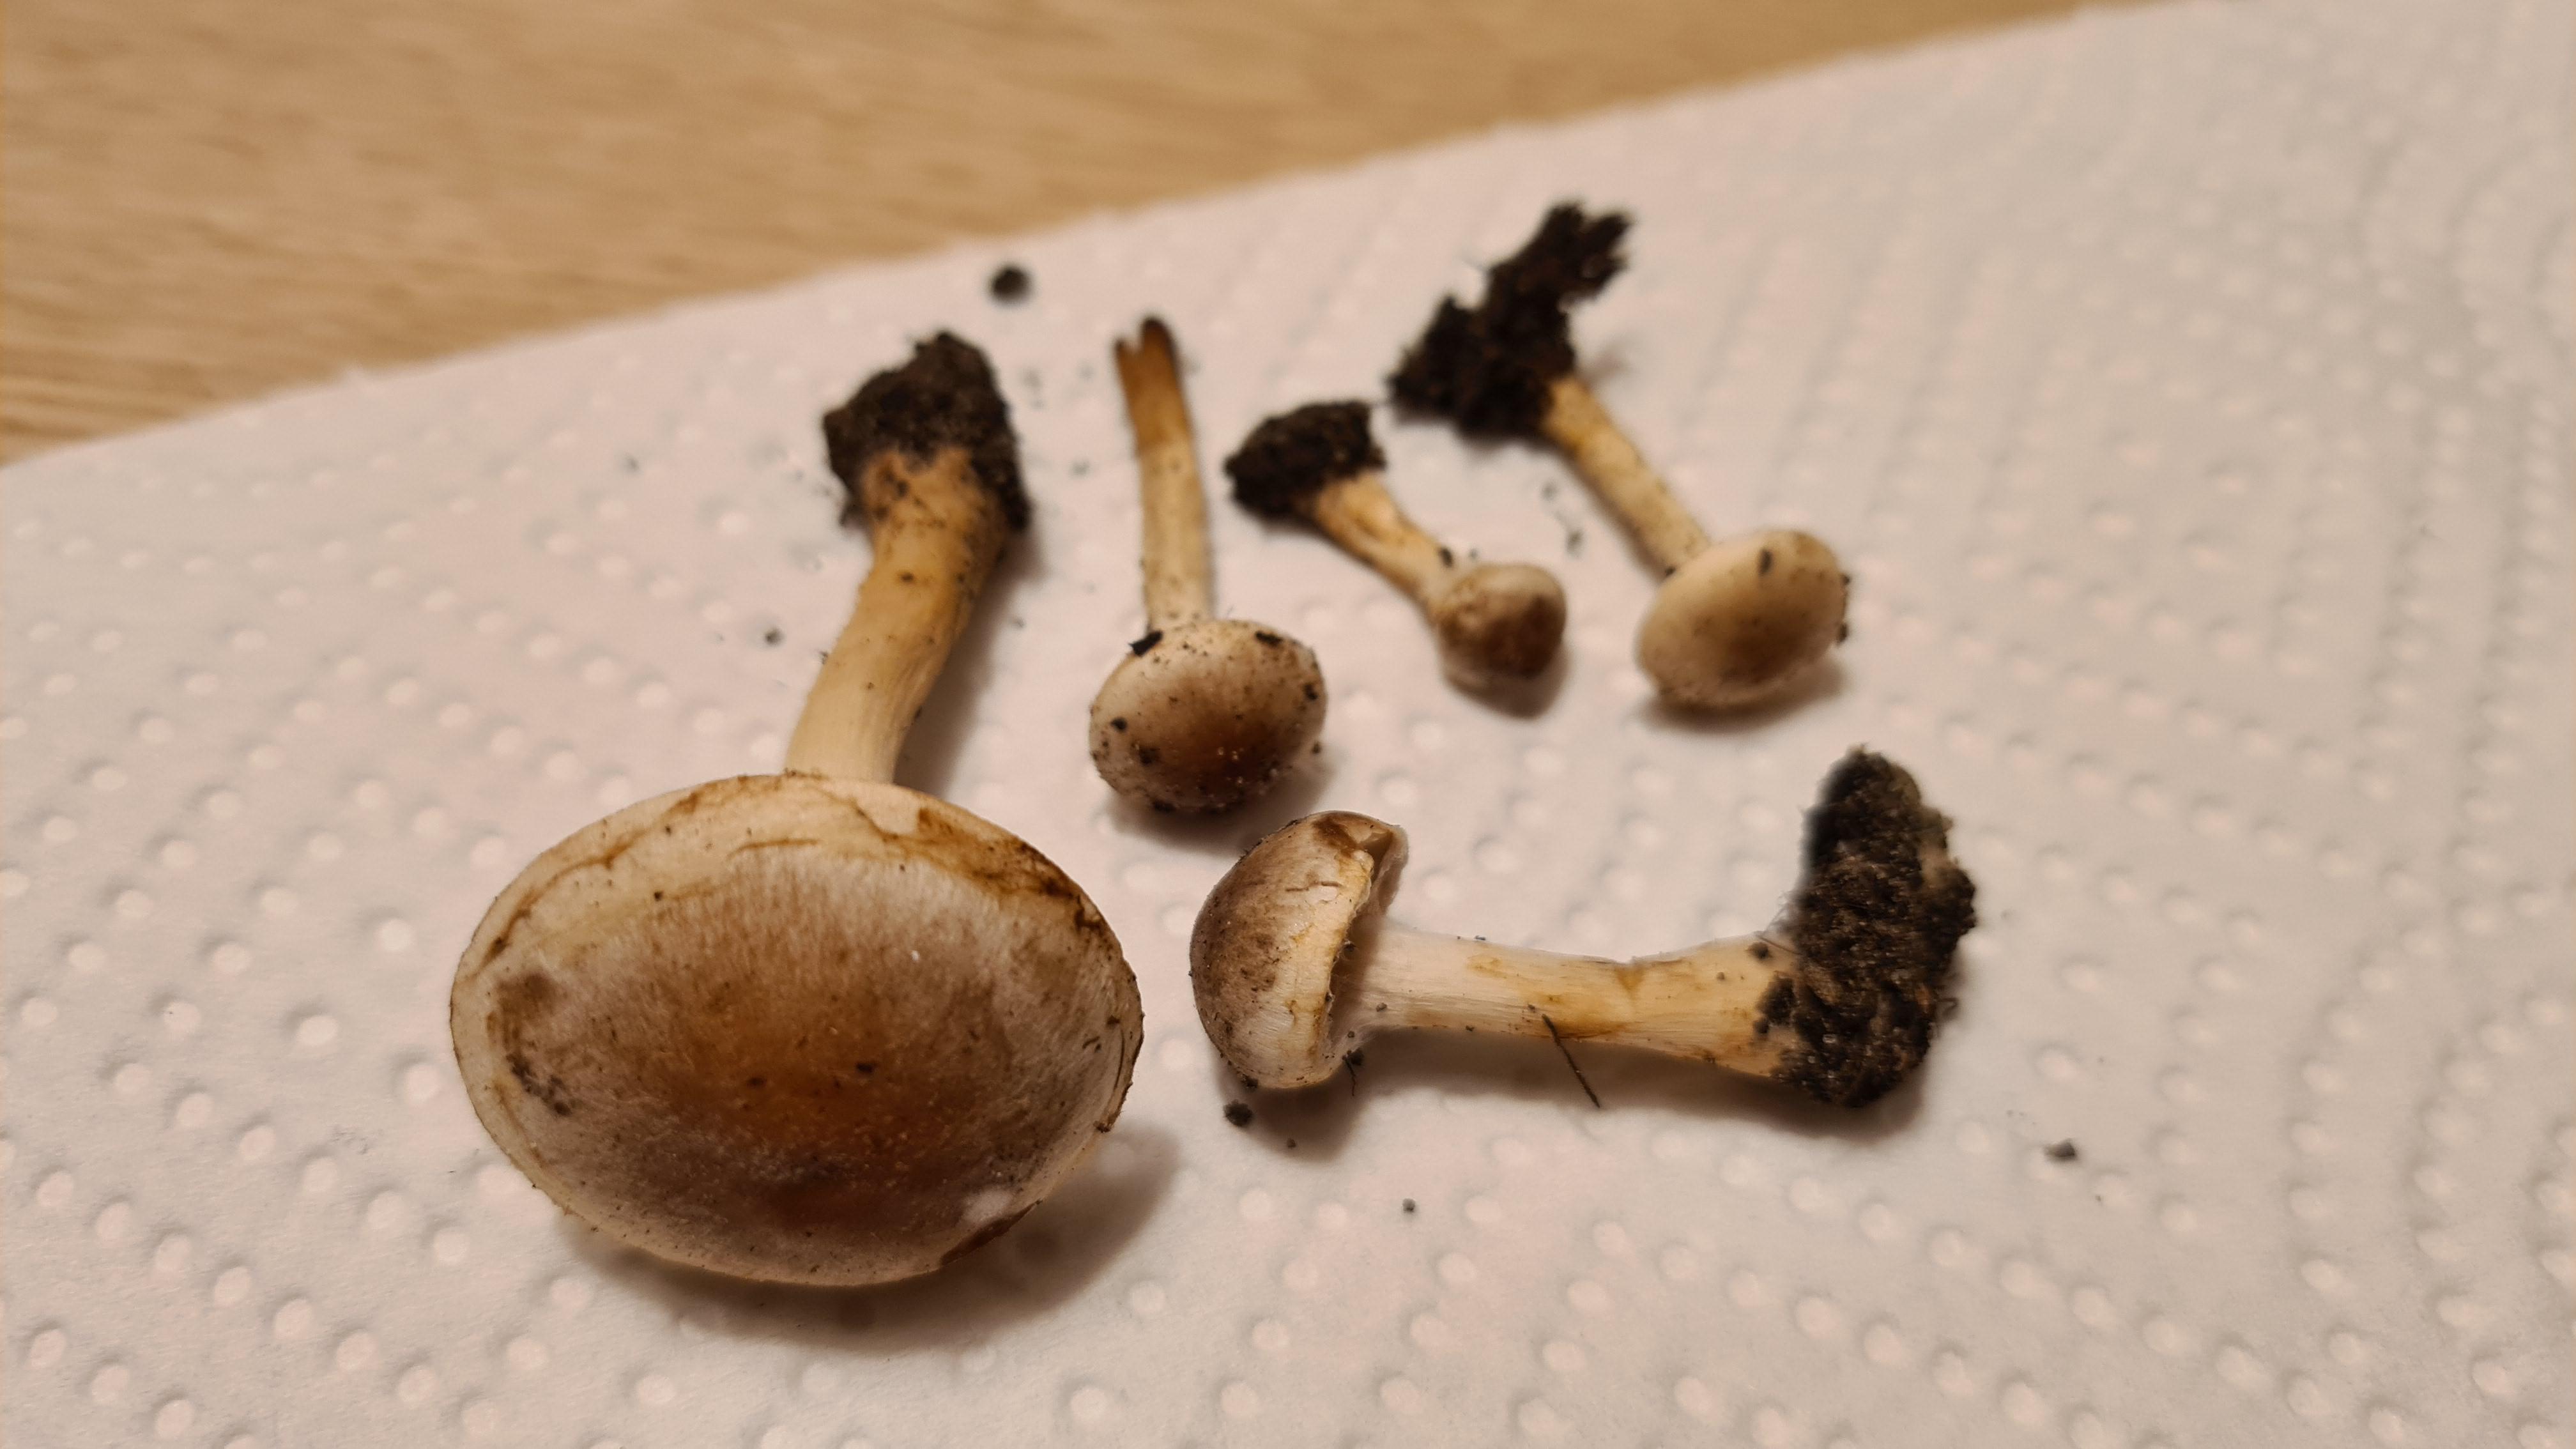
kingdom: Fungi
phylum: Basidiomycota
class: Agaricomycetes
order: Agaricales
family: Hymenogastraceae
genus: Hebeloma
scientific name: Hebeloma mesophaeum
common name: lerbrun tåreblad
